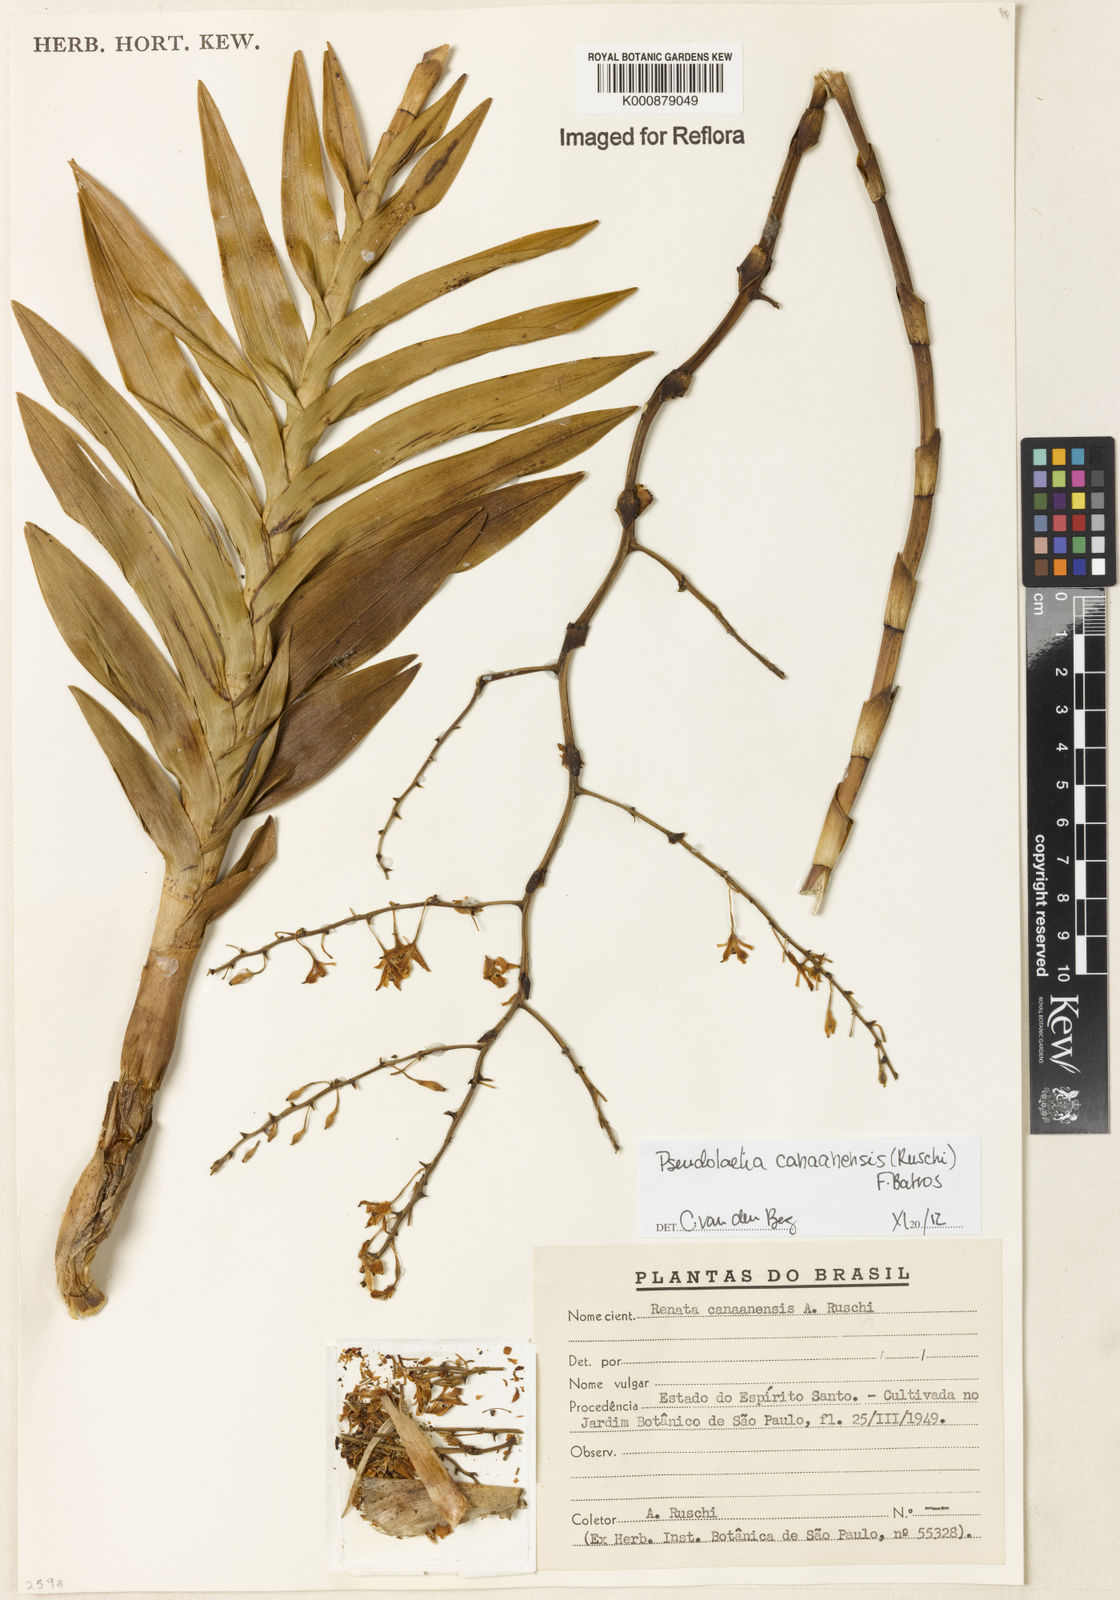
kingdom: Plantae
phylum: Tracheophyta
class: Liliopsida
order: Asparagales
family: Orchidaceae
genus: Pseudolaelia
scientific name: Pseudolaelia canaanensis
